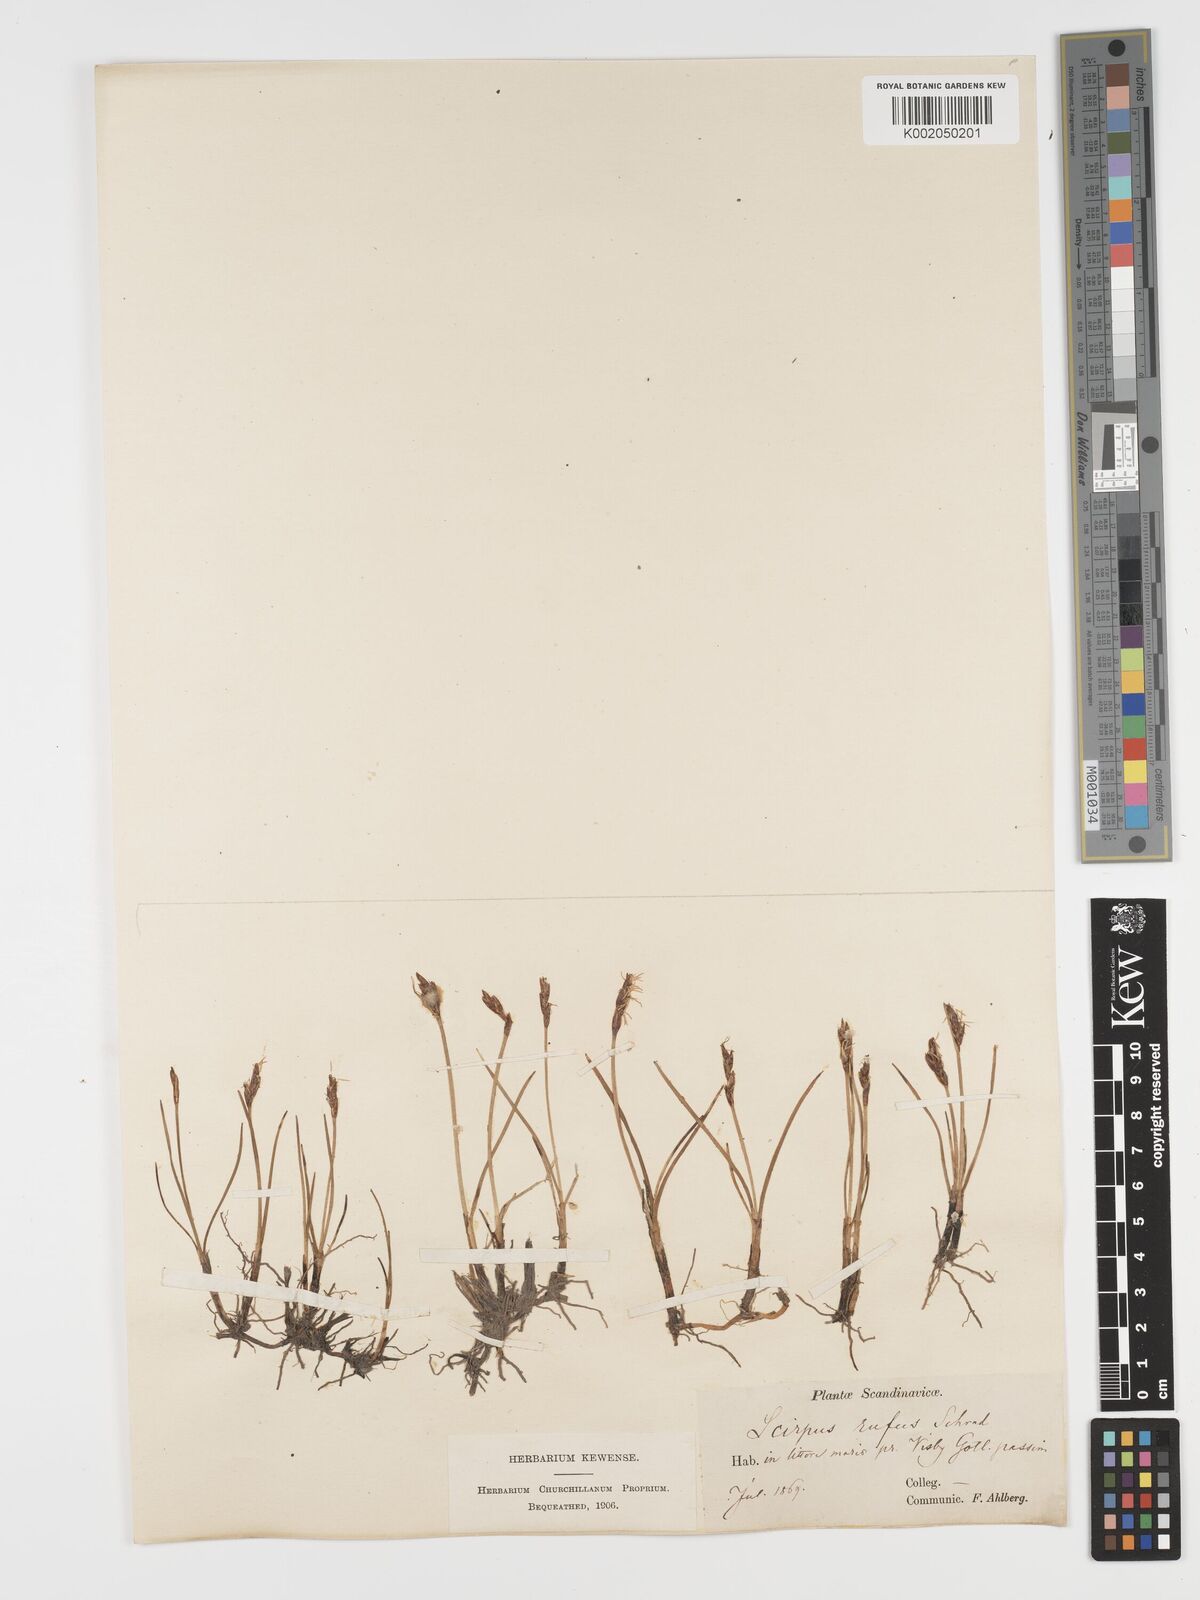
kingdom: Plantae
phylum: Tracheophyta
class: Liliopsida
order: Poales
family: Cyperaceae
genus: Blysmus
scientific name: Blysmus rufus
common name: Saltmarsh flat-sedge
